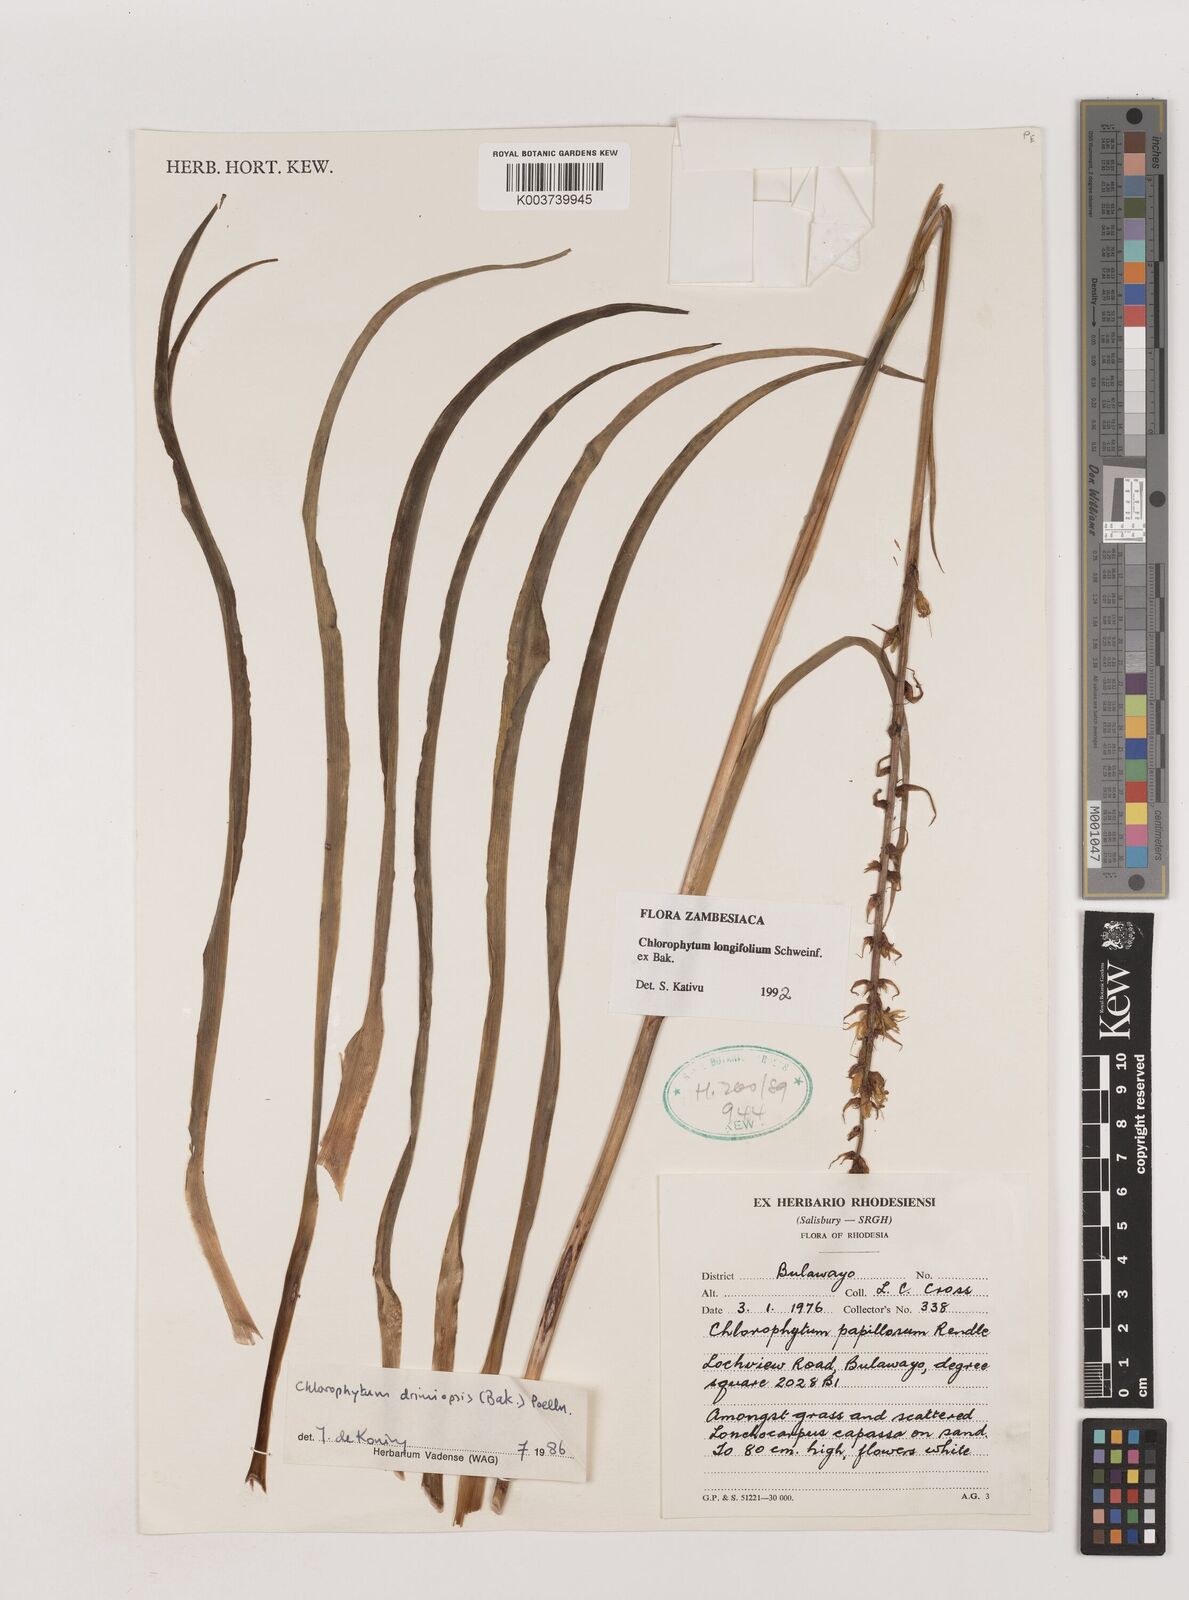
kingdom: Plantae
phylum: Tracheophyta
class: Liliopsida
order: Asparagales
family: Asparagaceae
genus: Chlorophytum
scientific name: Chlorophytum longifolium
